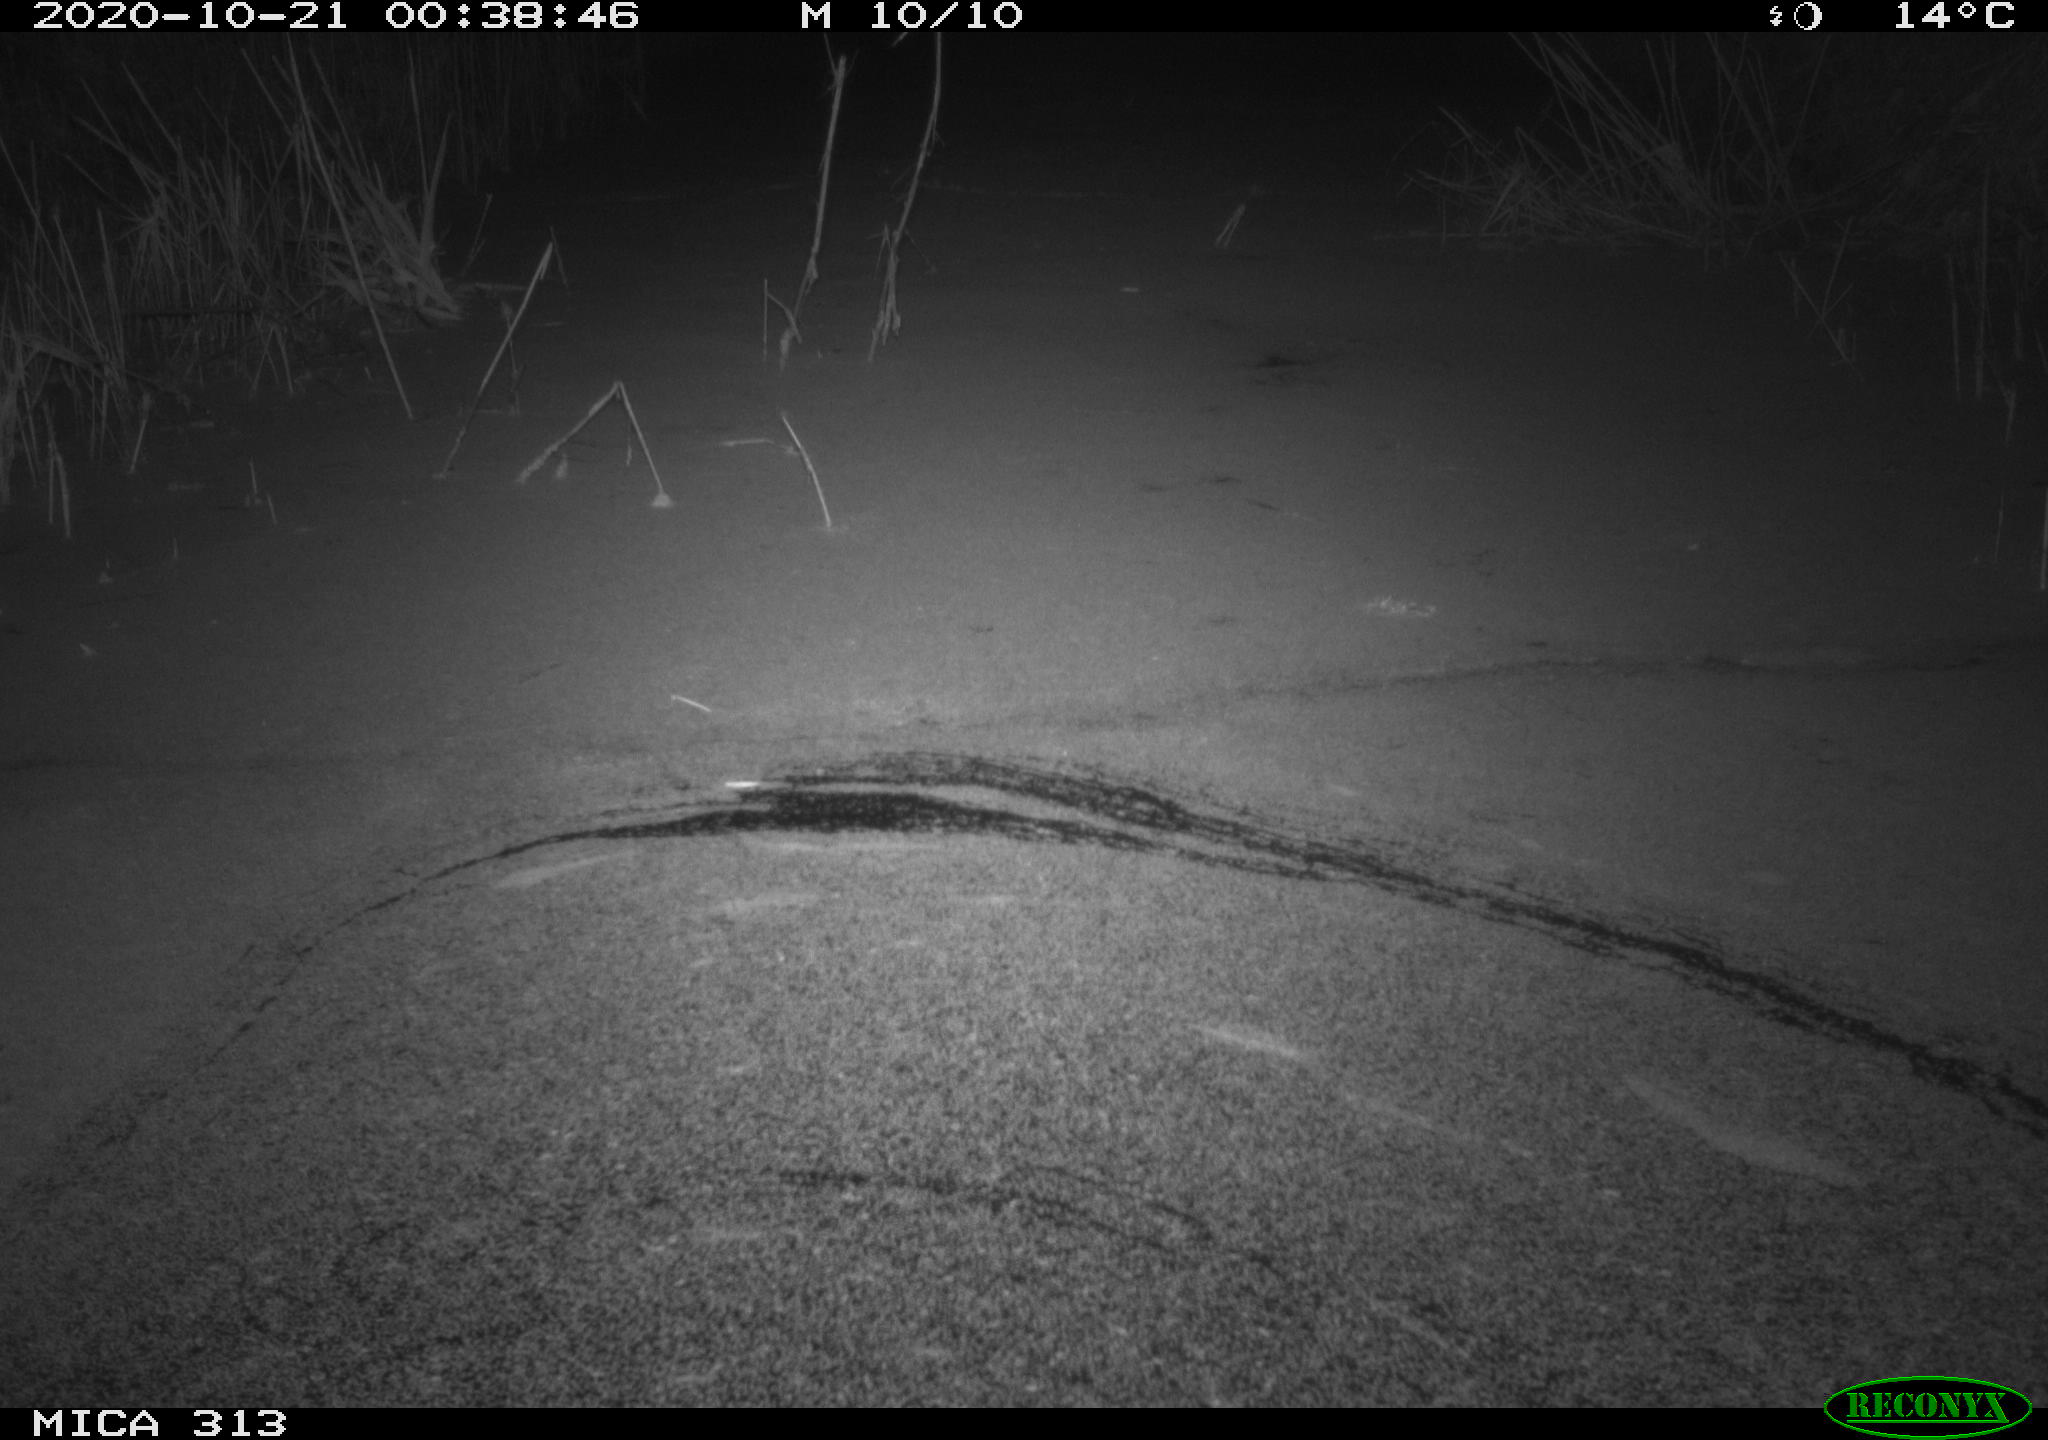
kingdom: Animalia
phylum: Chordata
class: Mammalia
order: Rodentia
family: Muridae
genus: Rattus
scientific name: Rattus norvegicus
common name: Brown rat
